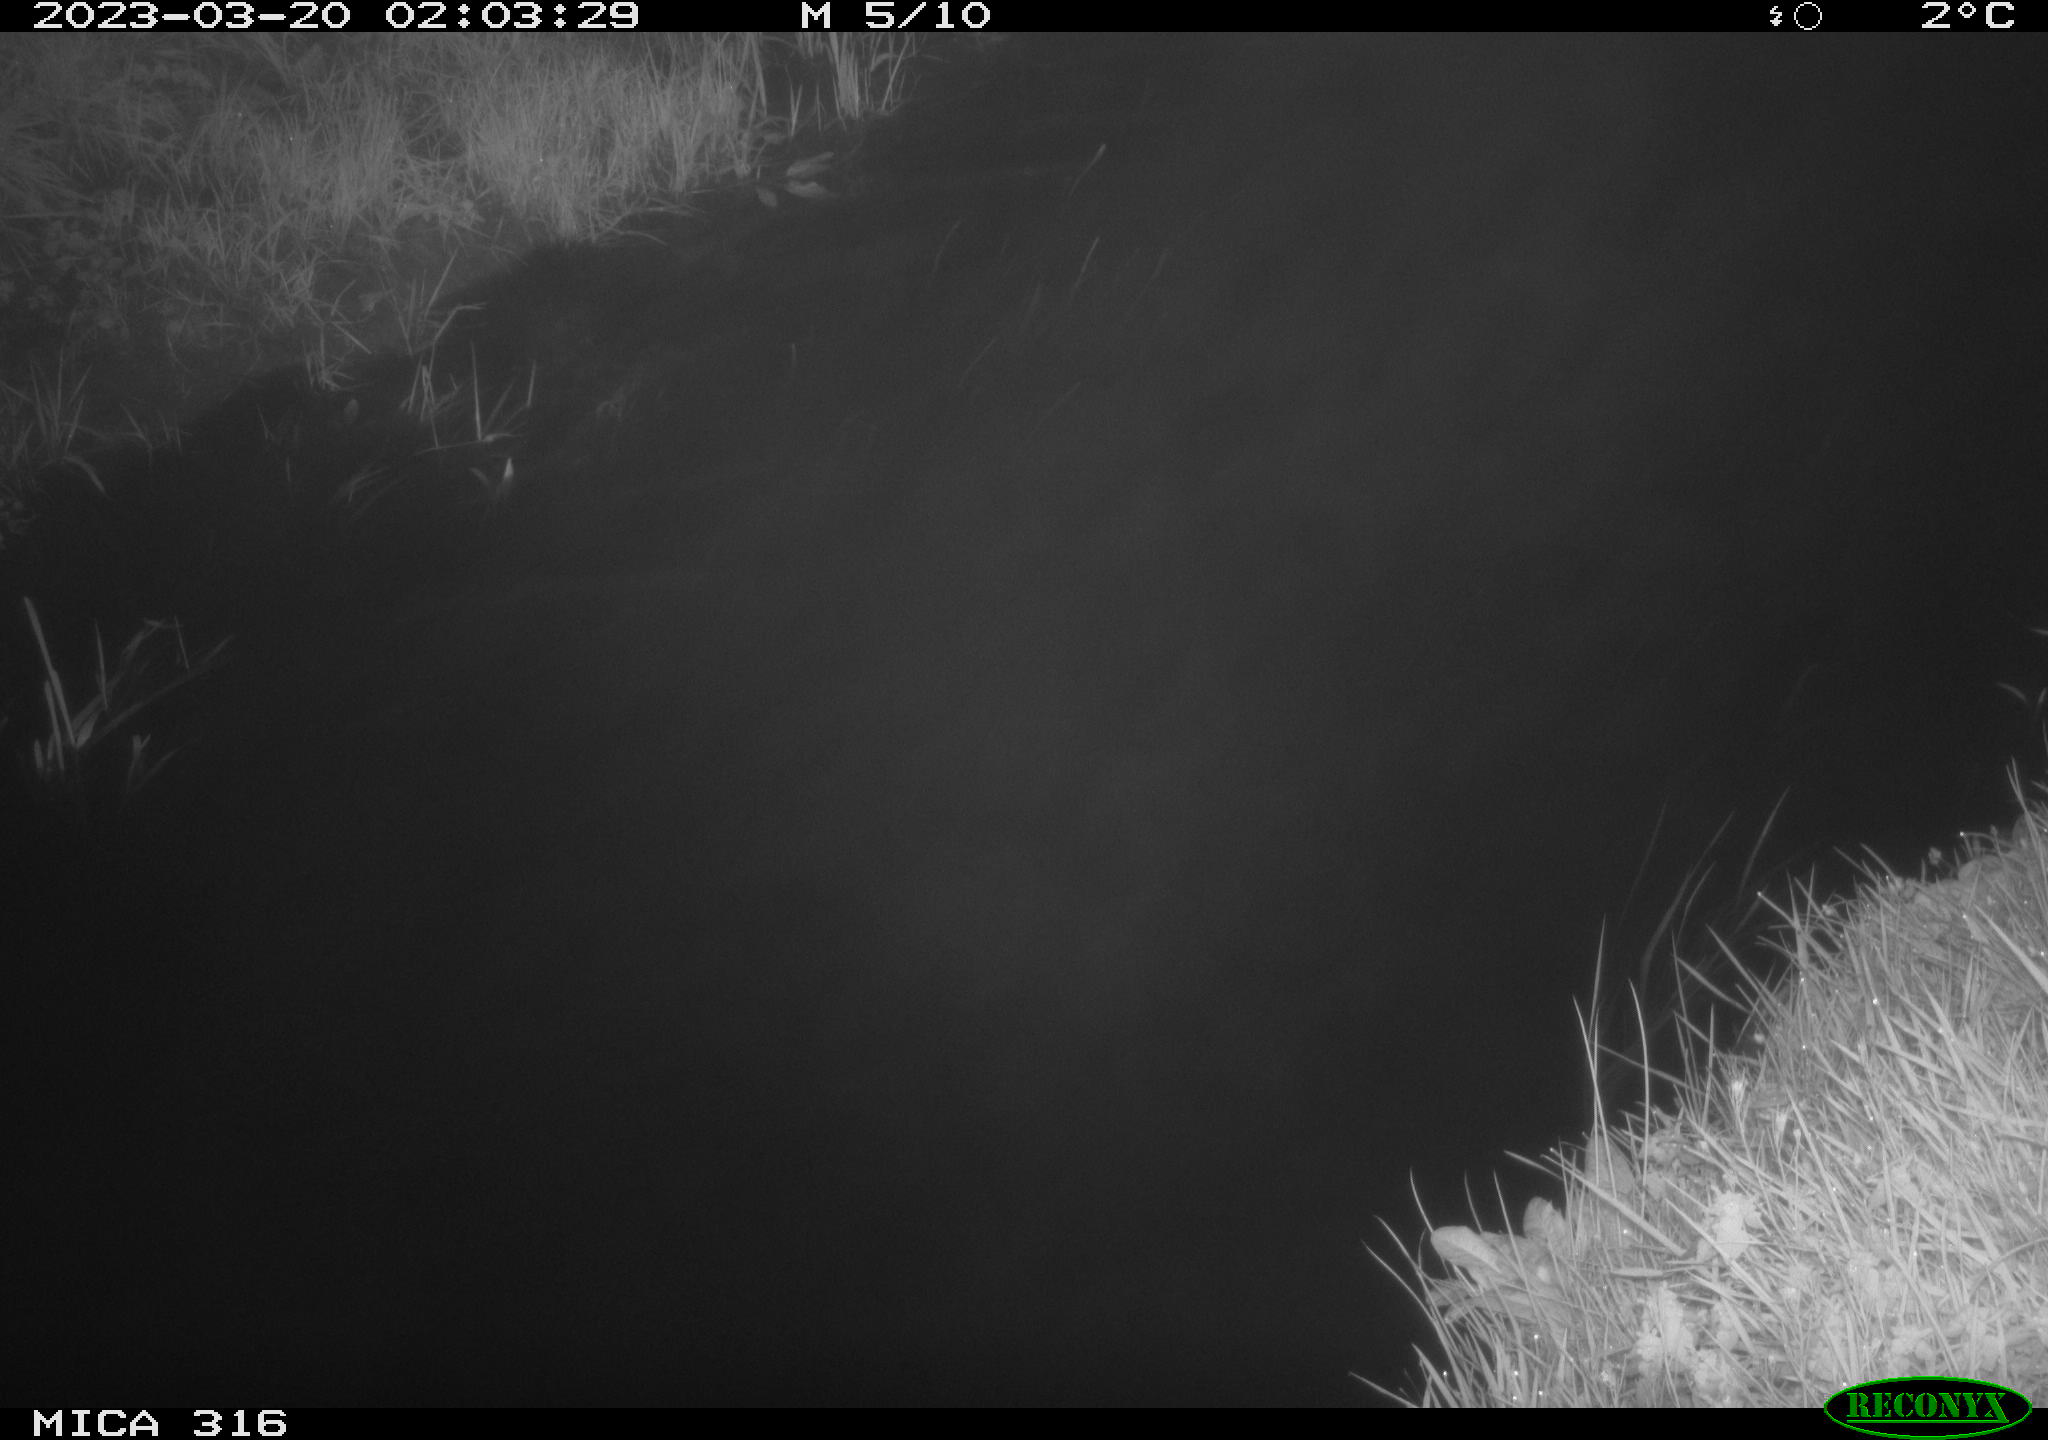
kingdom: Animalia
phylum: Chordata
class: Aves
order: Anseriformes
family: Anatidae
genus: Anas
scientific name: Anas
